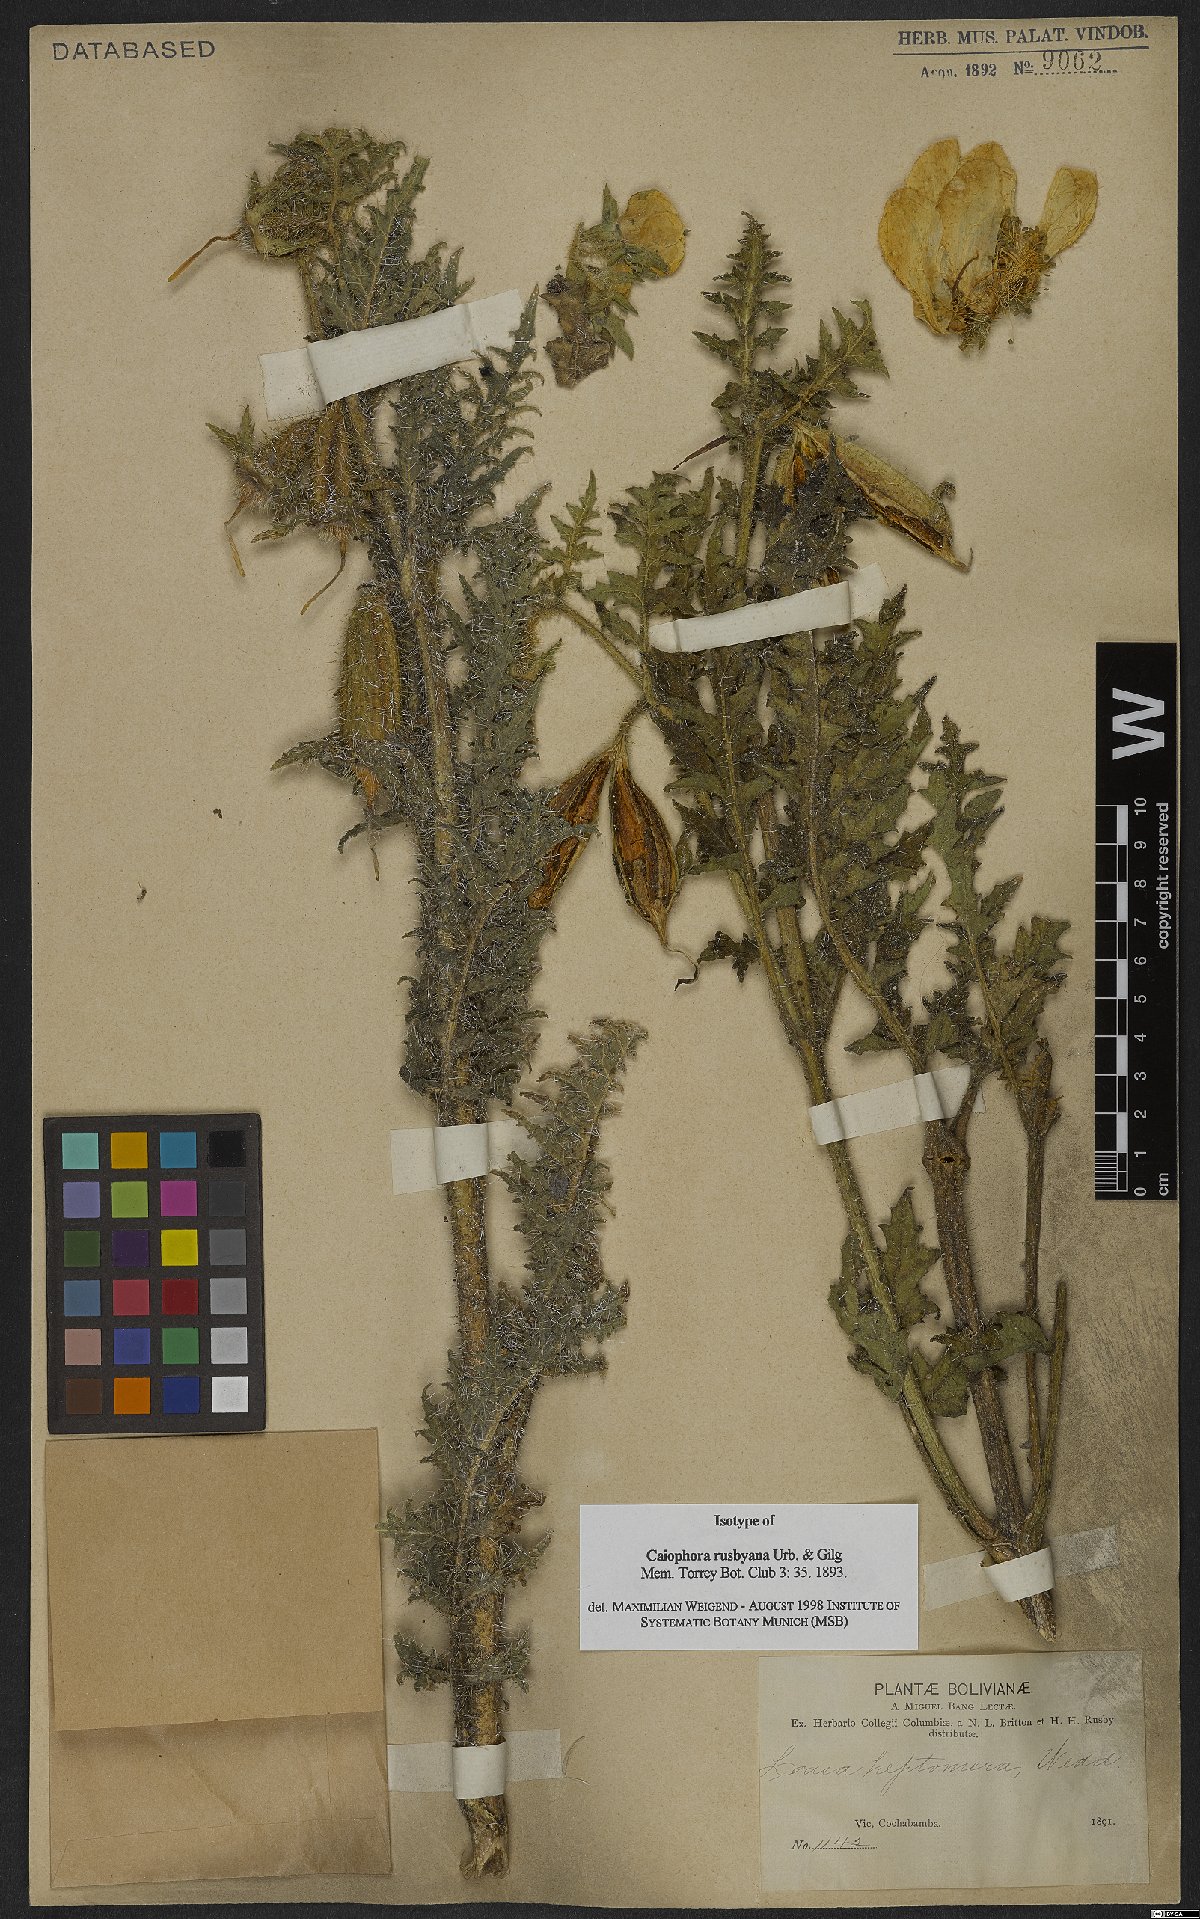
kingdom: Plantae
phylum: Tracheophyta
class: Magnoliopsida
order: Cornales
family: Loasaceae
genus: Caiophora
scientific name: Caiophora rusbyana
